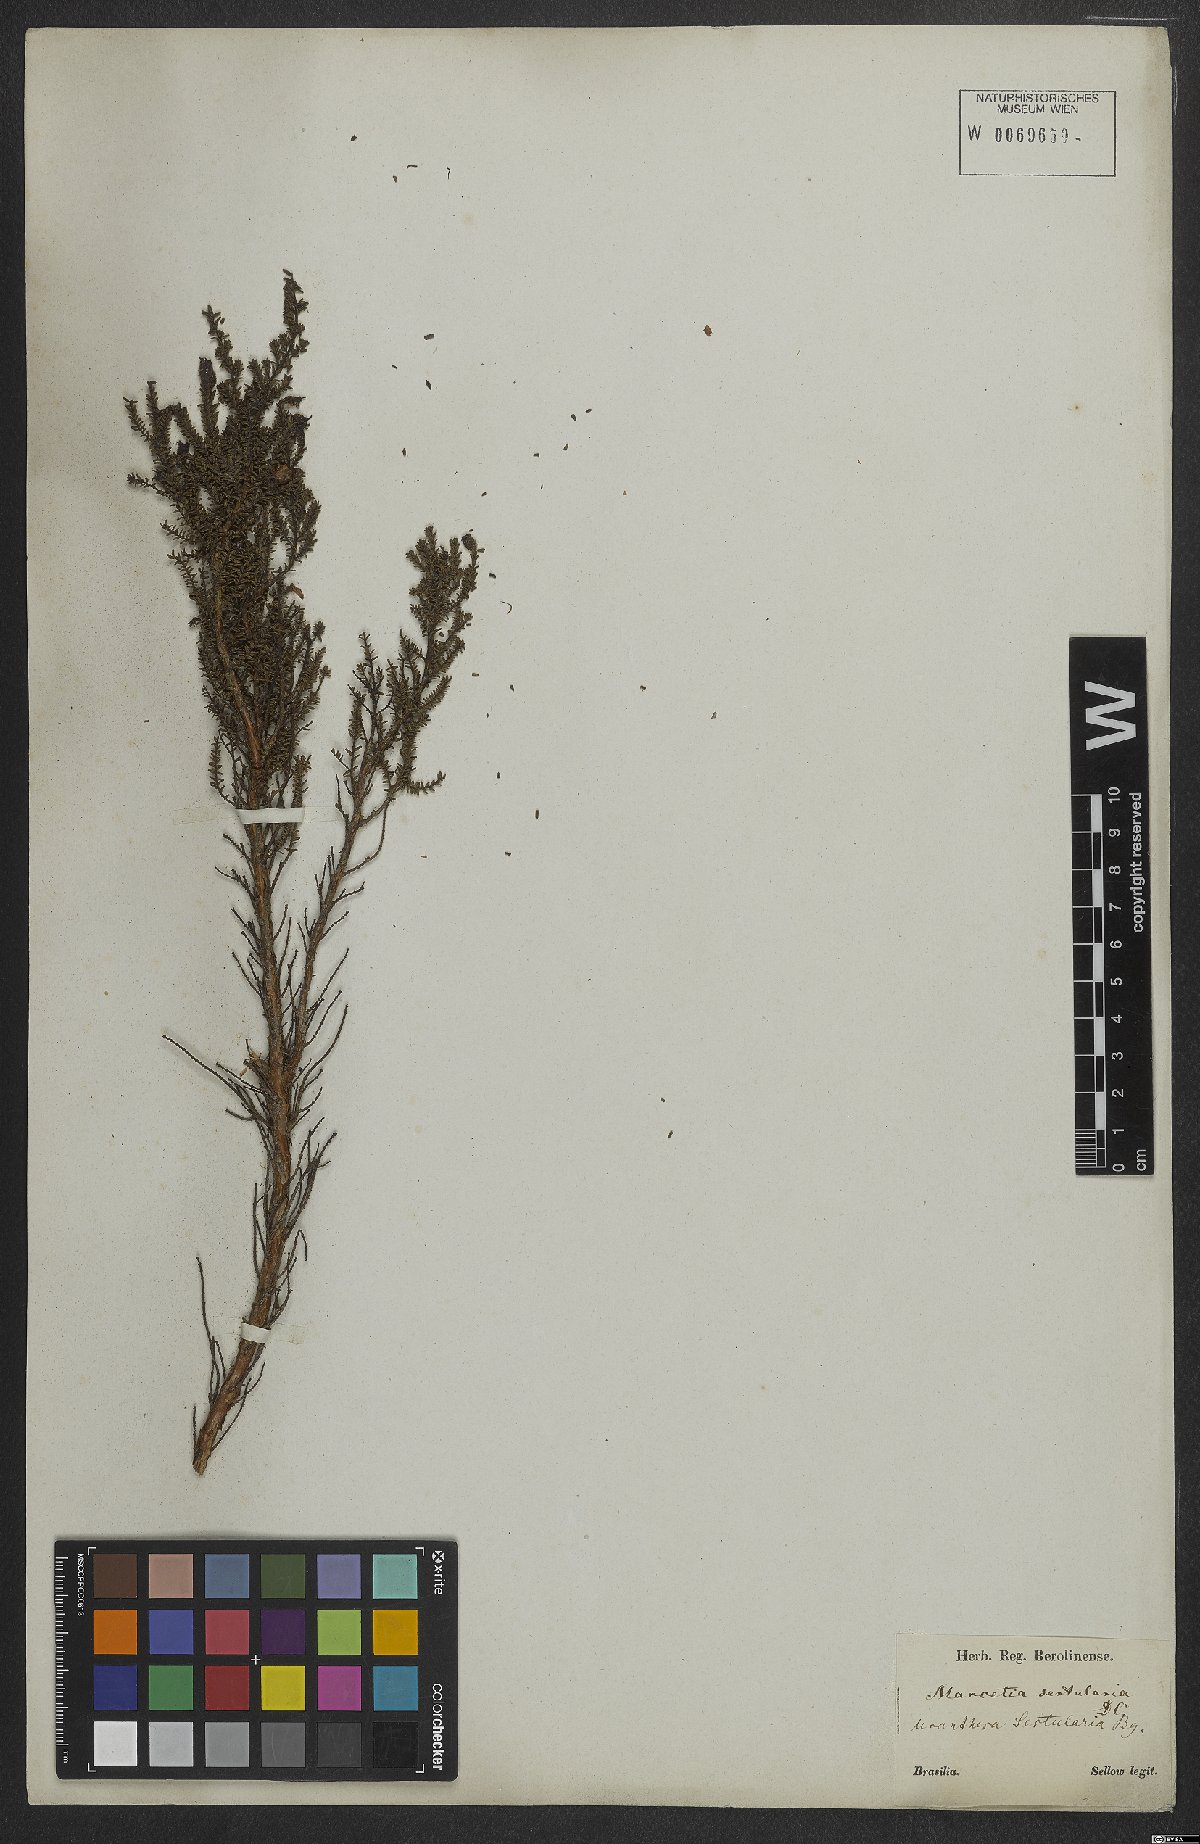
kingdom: Plantae
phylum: Tracheophyta
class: Magnoliopsida
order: Myrtales
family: Melastomataceae
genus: Fritzschia
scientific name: Fritzschia sertularia
